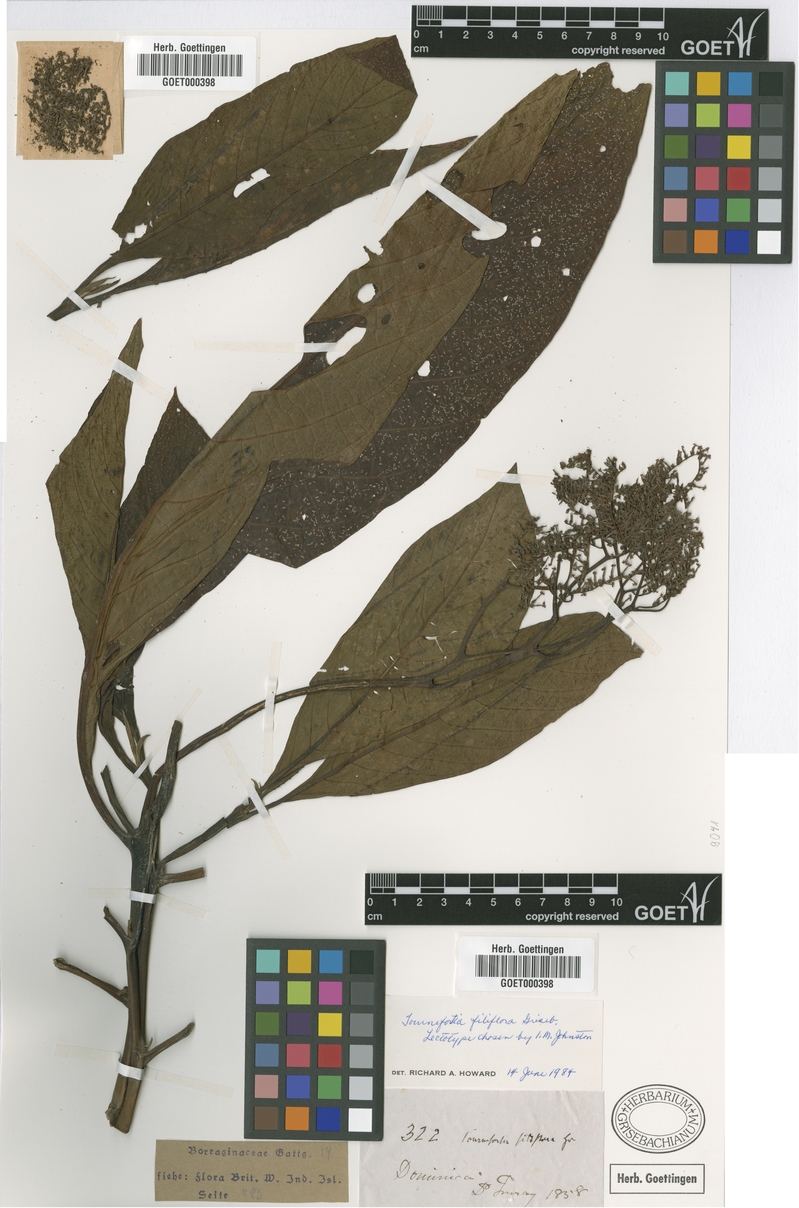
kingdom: Plantae
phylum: Tracheophyta
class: Magnoliopsida
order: Boraginales
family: Heliotropiaceae
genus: Heliotropium
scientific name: Heliotropium filiflorum
